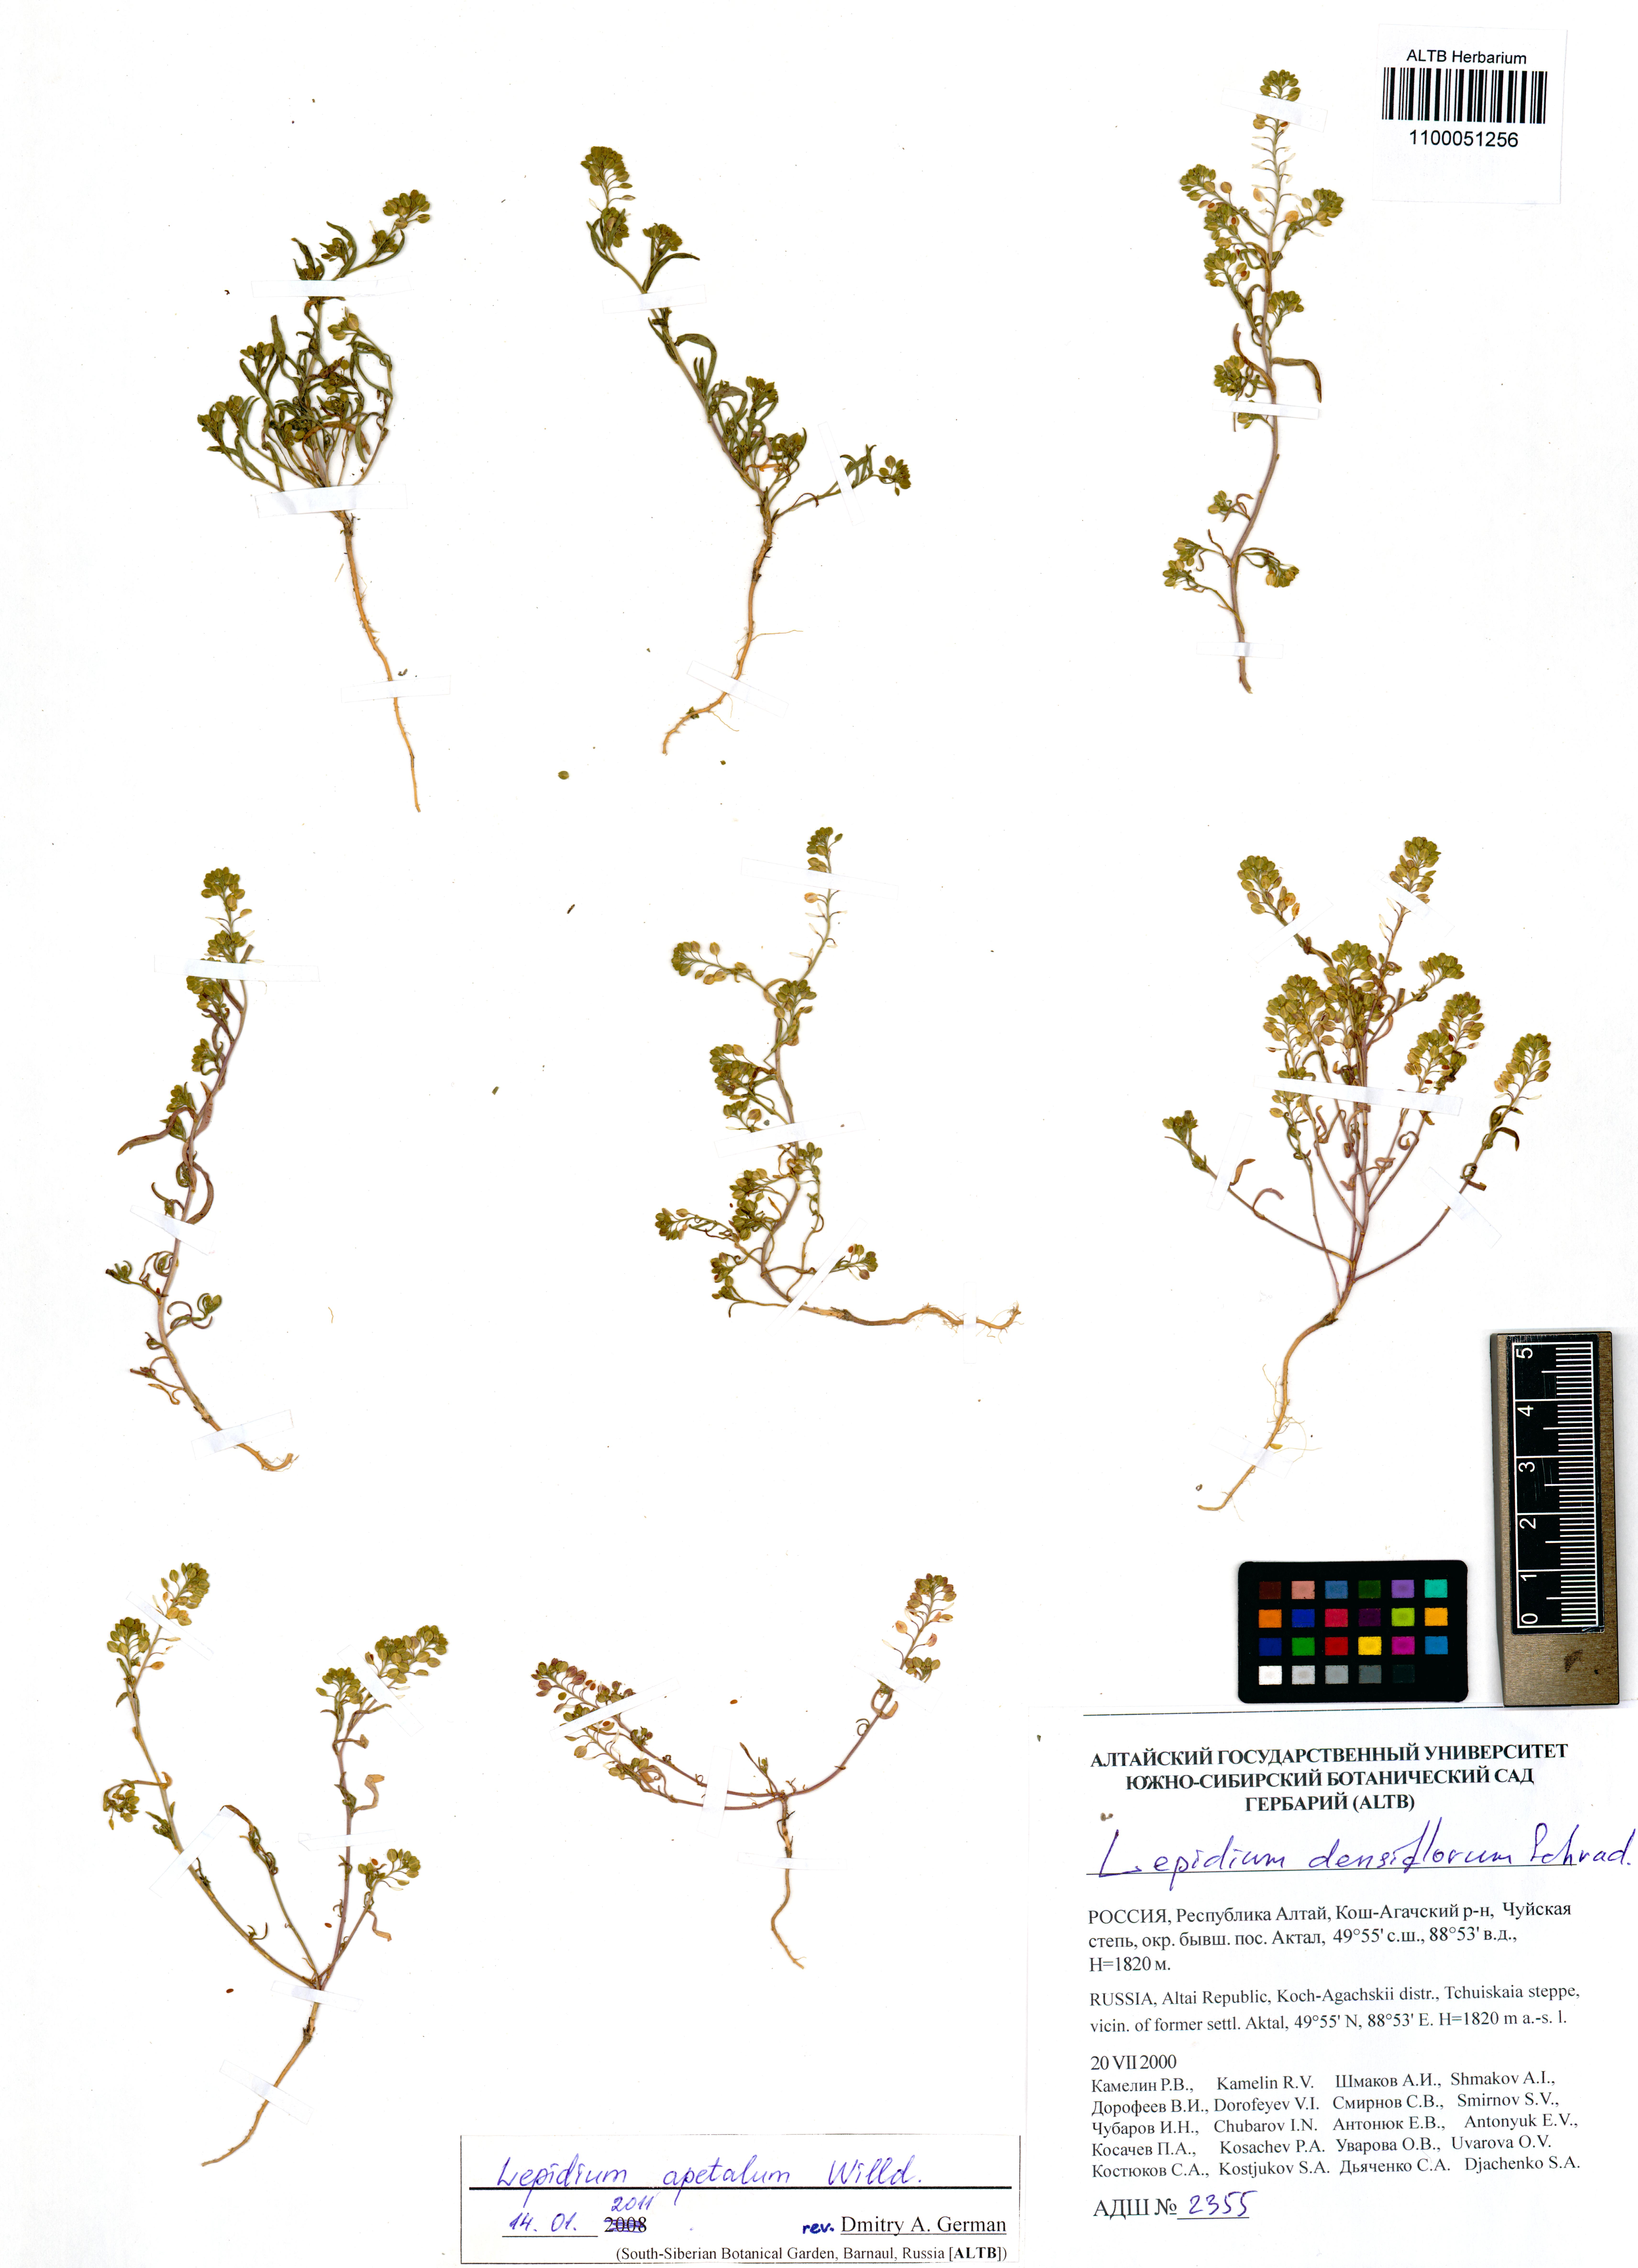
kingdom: Plantae
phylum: Tracheophyta
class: Magnoliopsida
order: Brassicales
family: Brassicaceae
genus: Lepidium
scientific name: Lepidium apetalum
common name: Pepperweed
